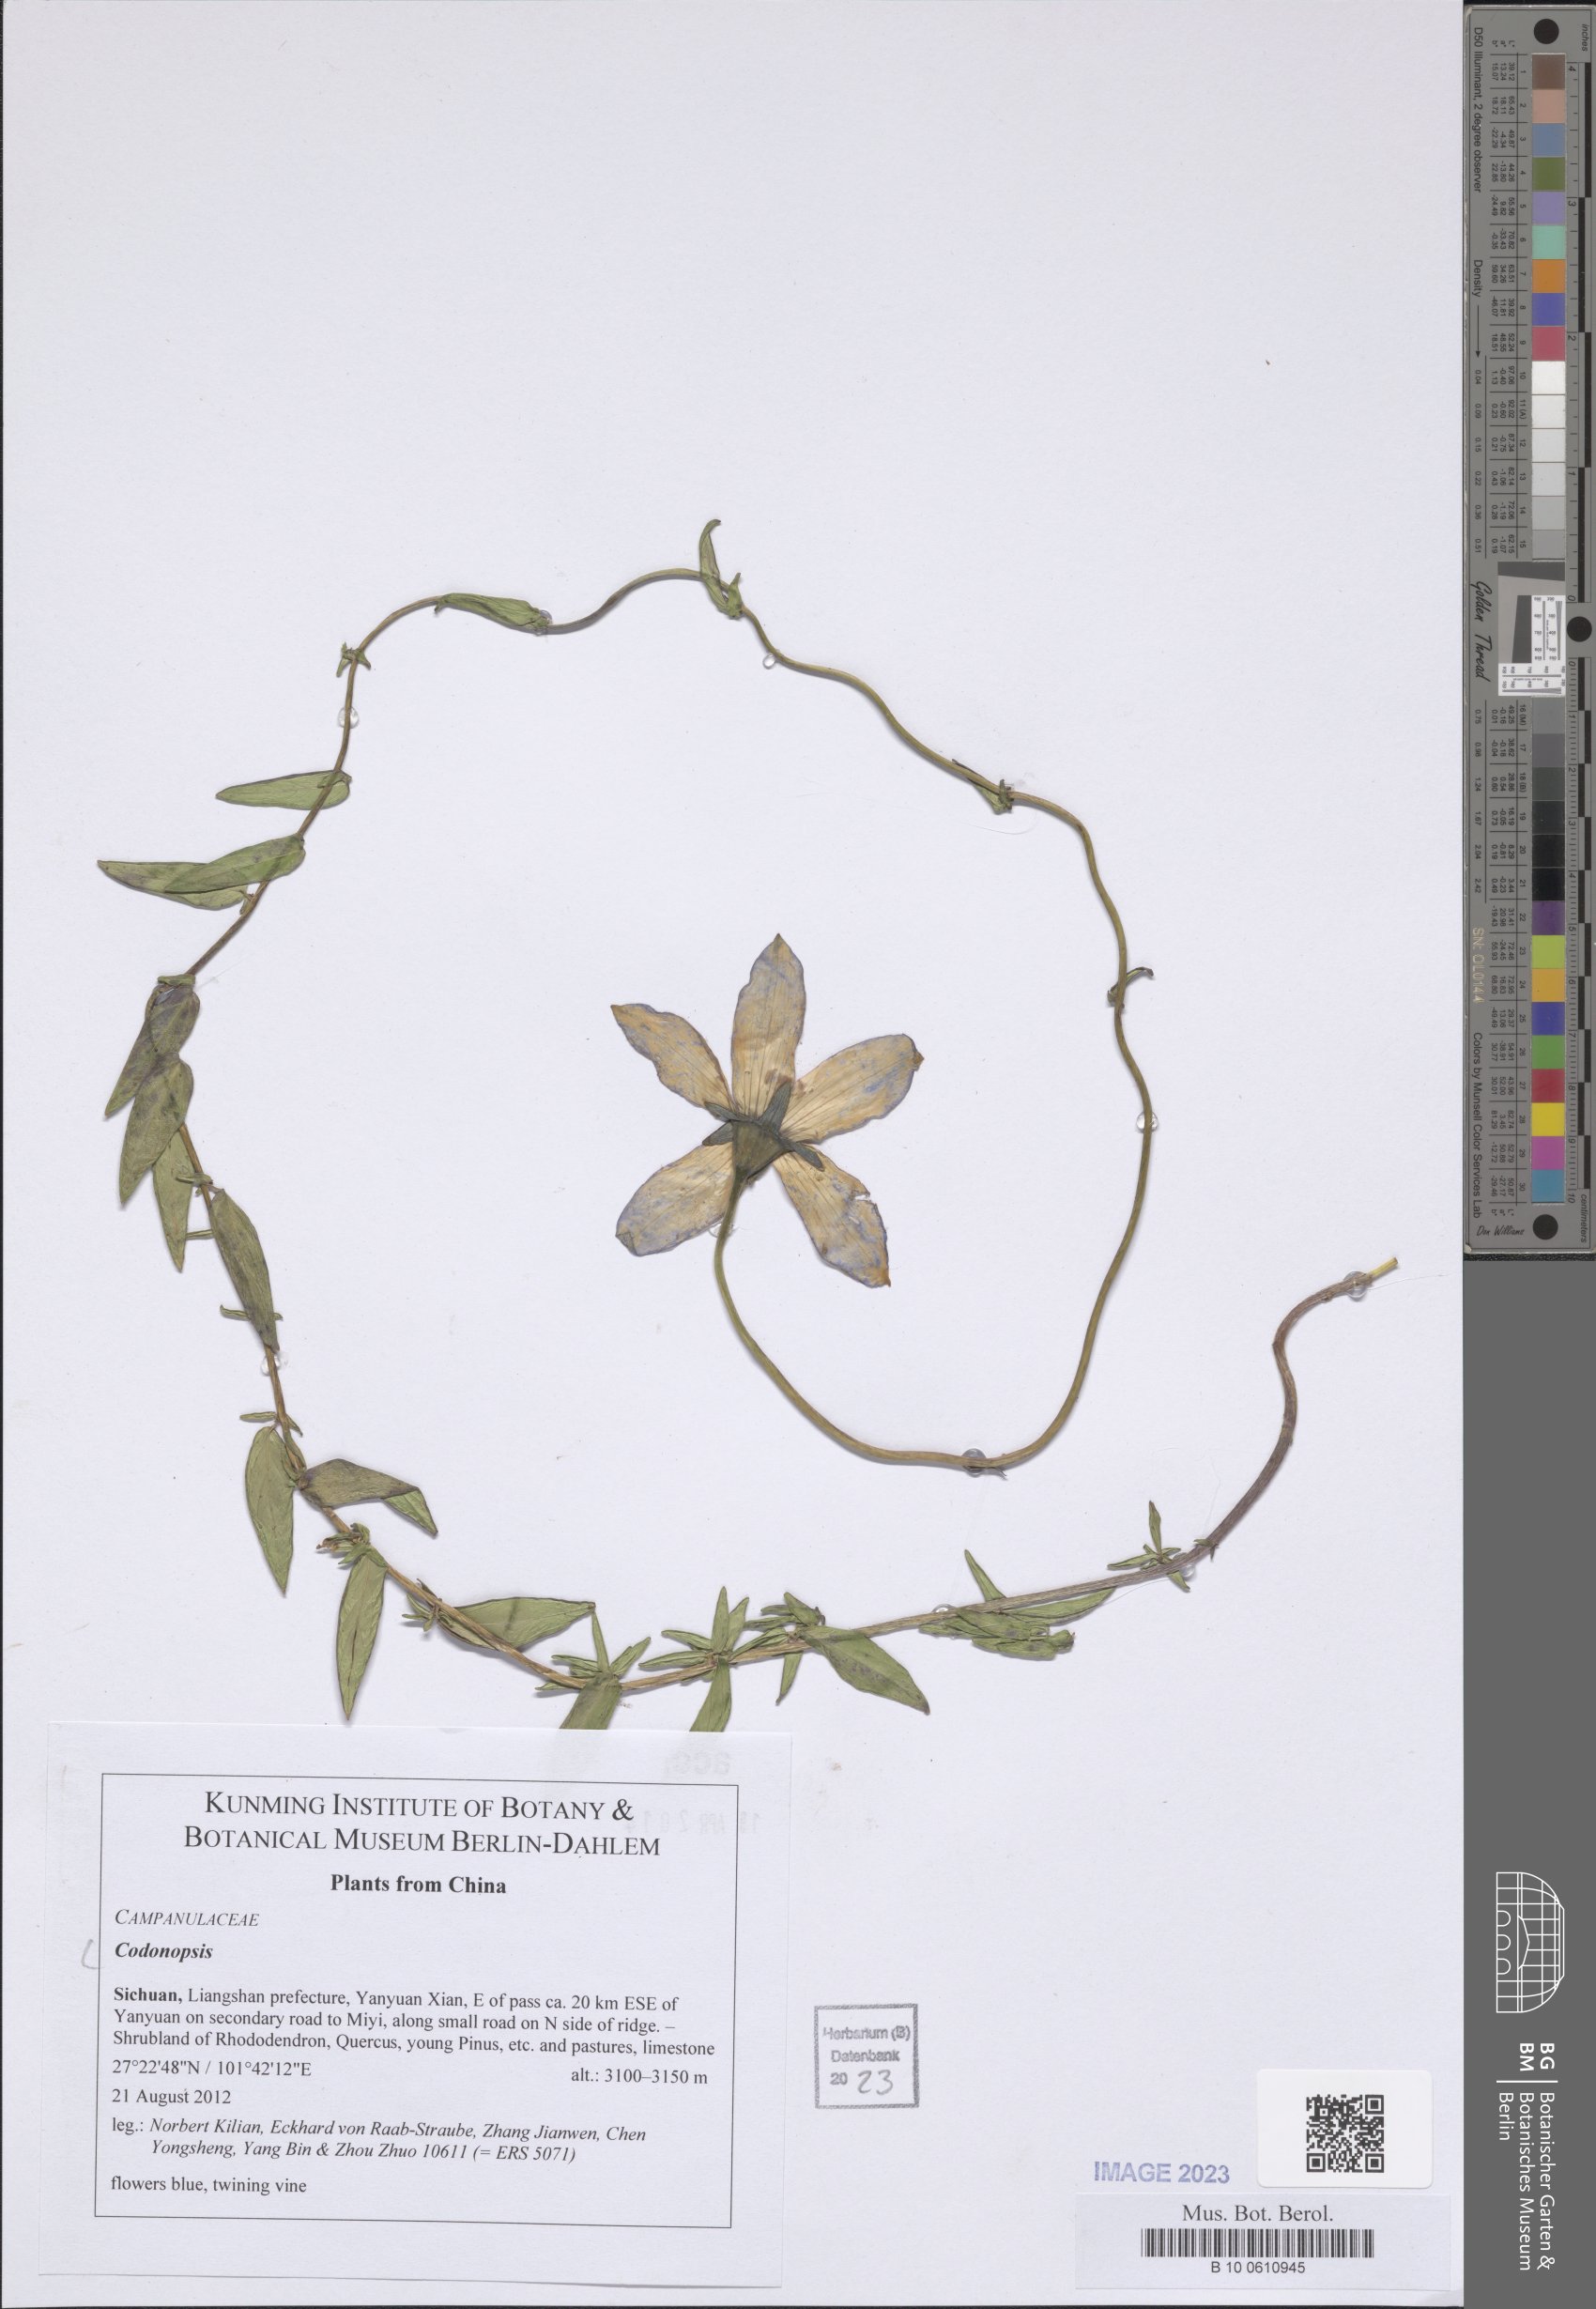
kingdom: Plantae
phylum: Tracheophyta
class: Magnoliopsida
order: Asterales
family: Campanulaceae
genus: Codonopsis
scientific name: Codonopsis
